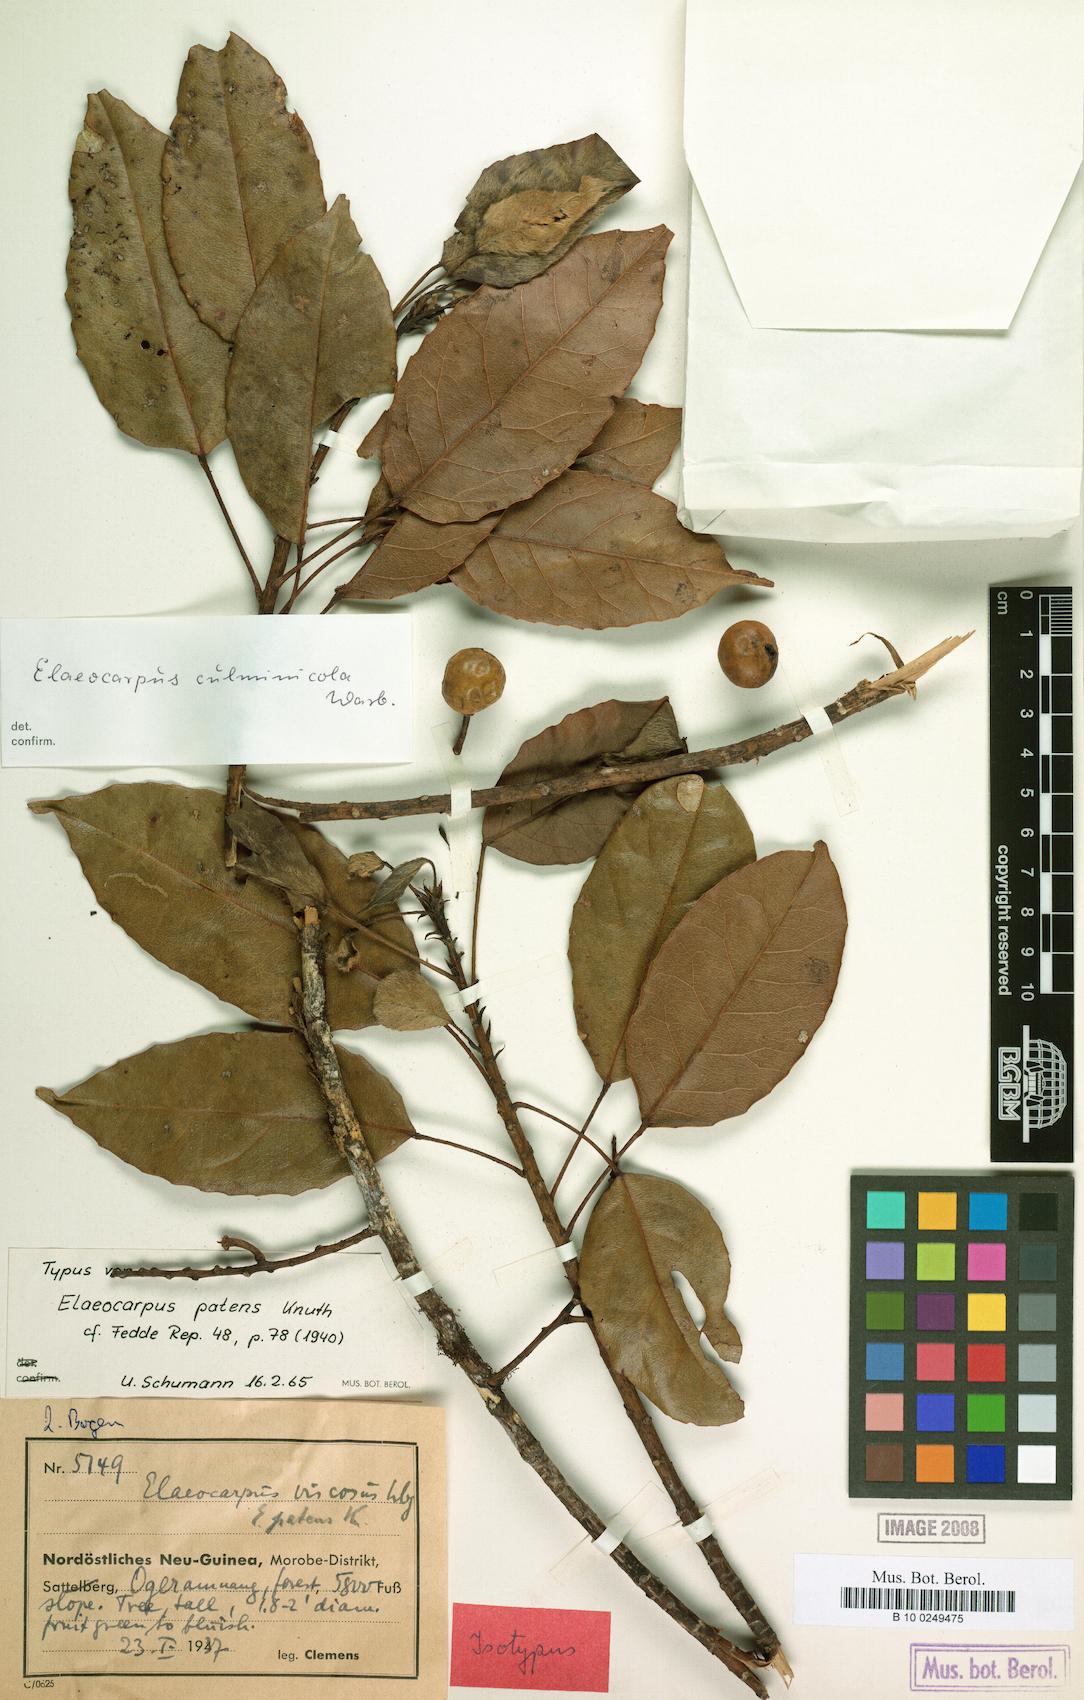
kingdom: Plantae
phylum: Tracheophyta
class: Magnoliopsida
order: Oxalidales
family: Elaeocarpaceae
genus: Elaeocarpus
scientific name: Elaeocarpus culminicola
